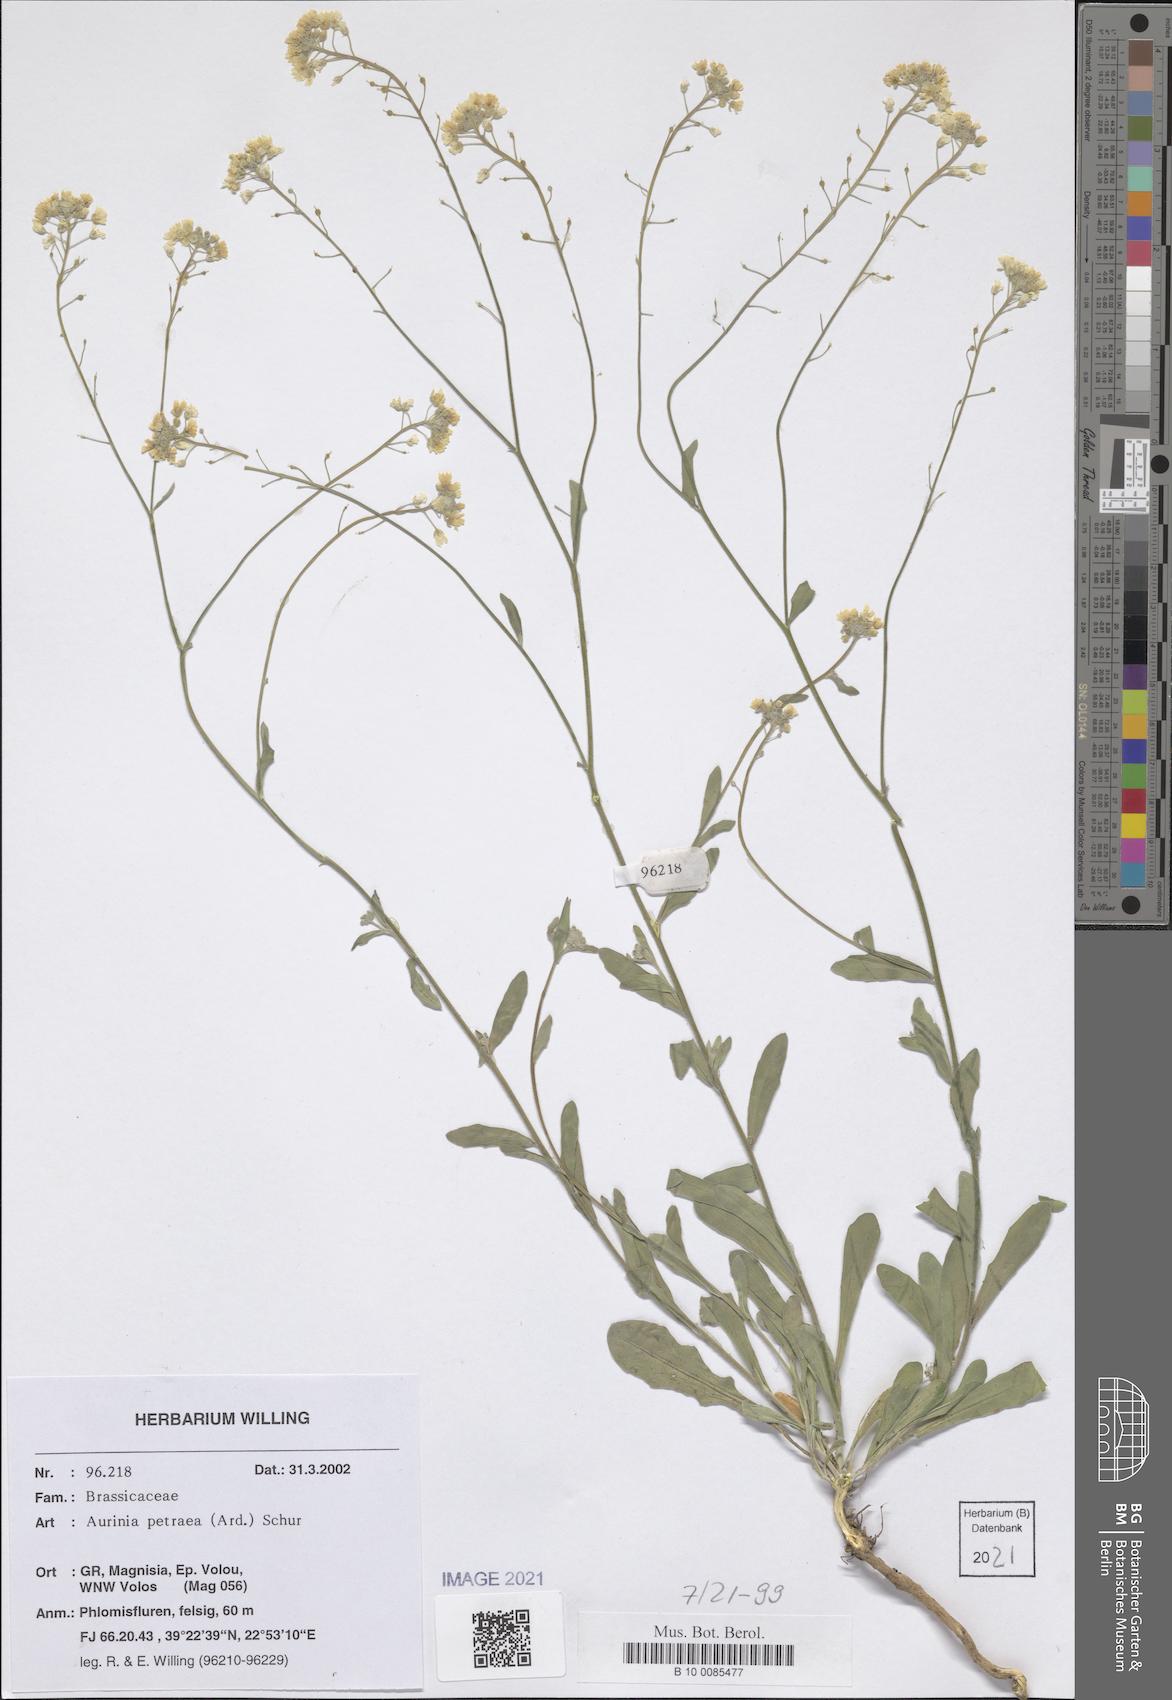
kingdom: Plantae
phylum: Tracheophyta
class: Magnoliopsida
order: Brassicales
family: Brassicaceae
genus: Aurinia
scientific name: Aurinia petraea
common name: Goldentuft
